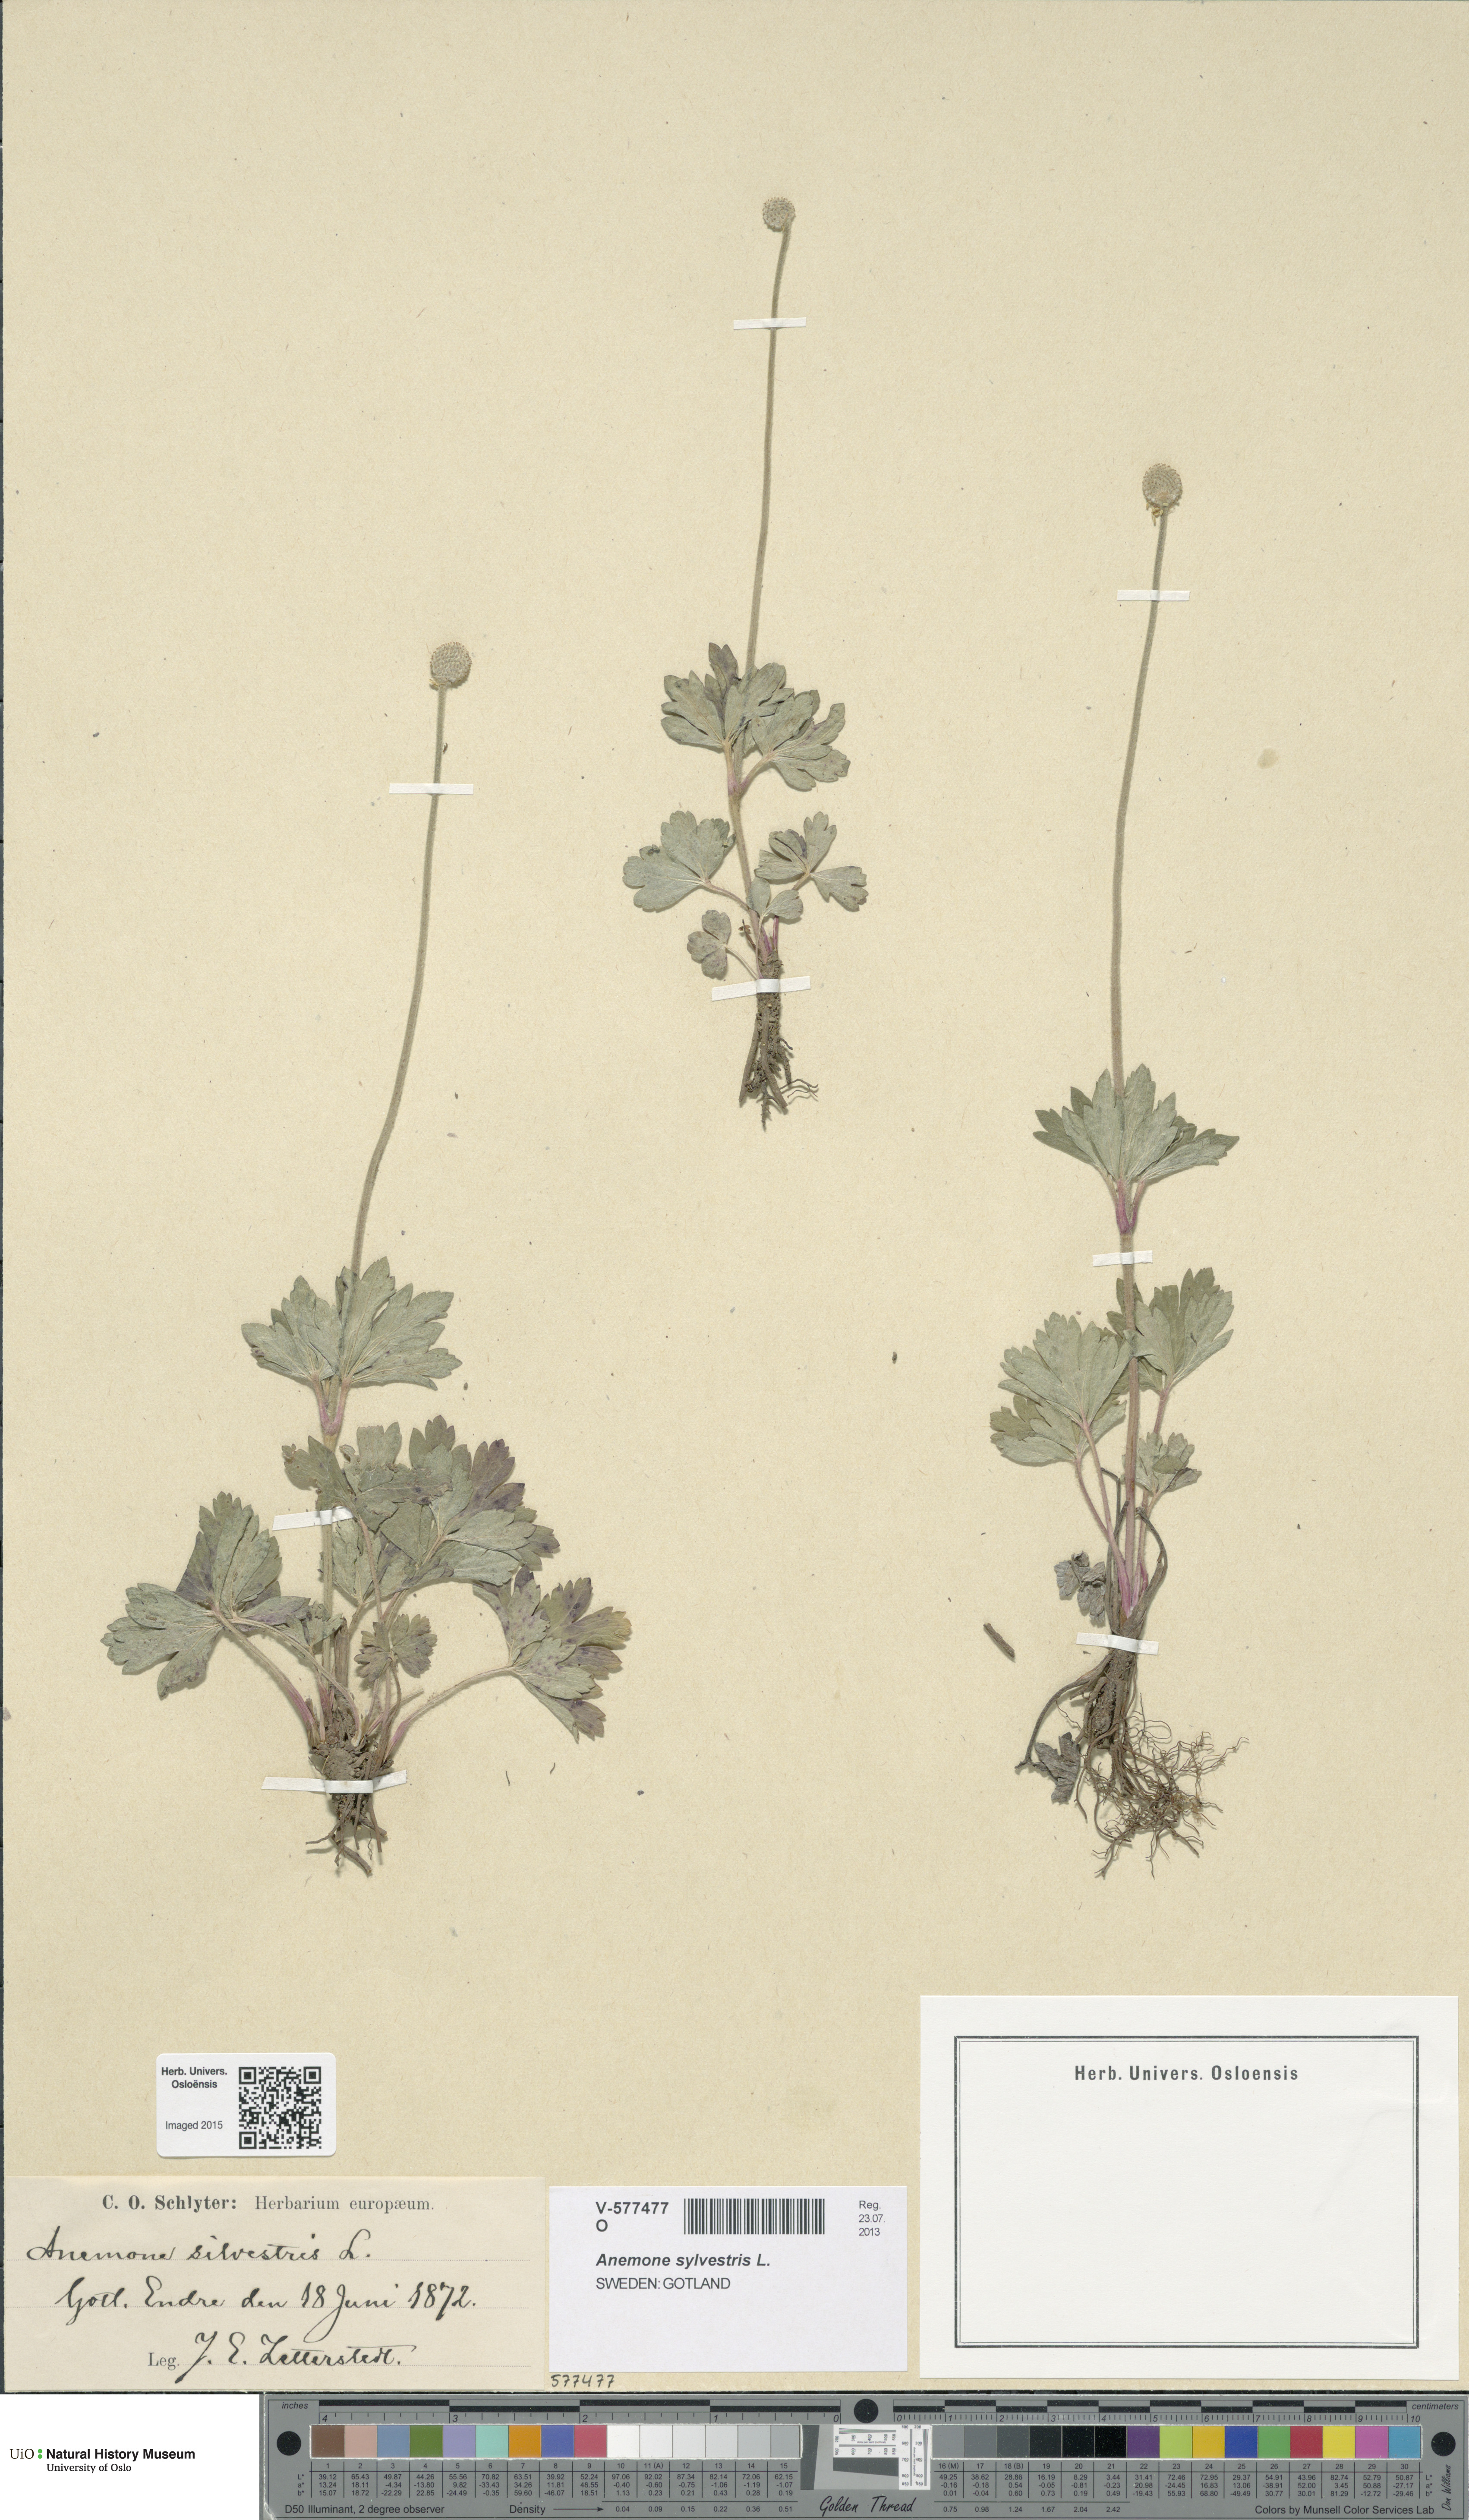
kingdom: Plantae
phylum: Tracheophyta
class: Magnoliopsida
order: Ranunculales
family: Ranunculaceae
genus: Anemone
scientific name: Anemone sylvestris
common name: Snowdrop anemone
